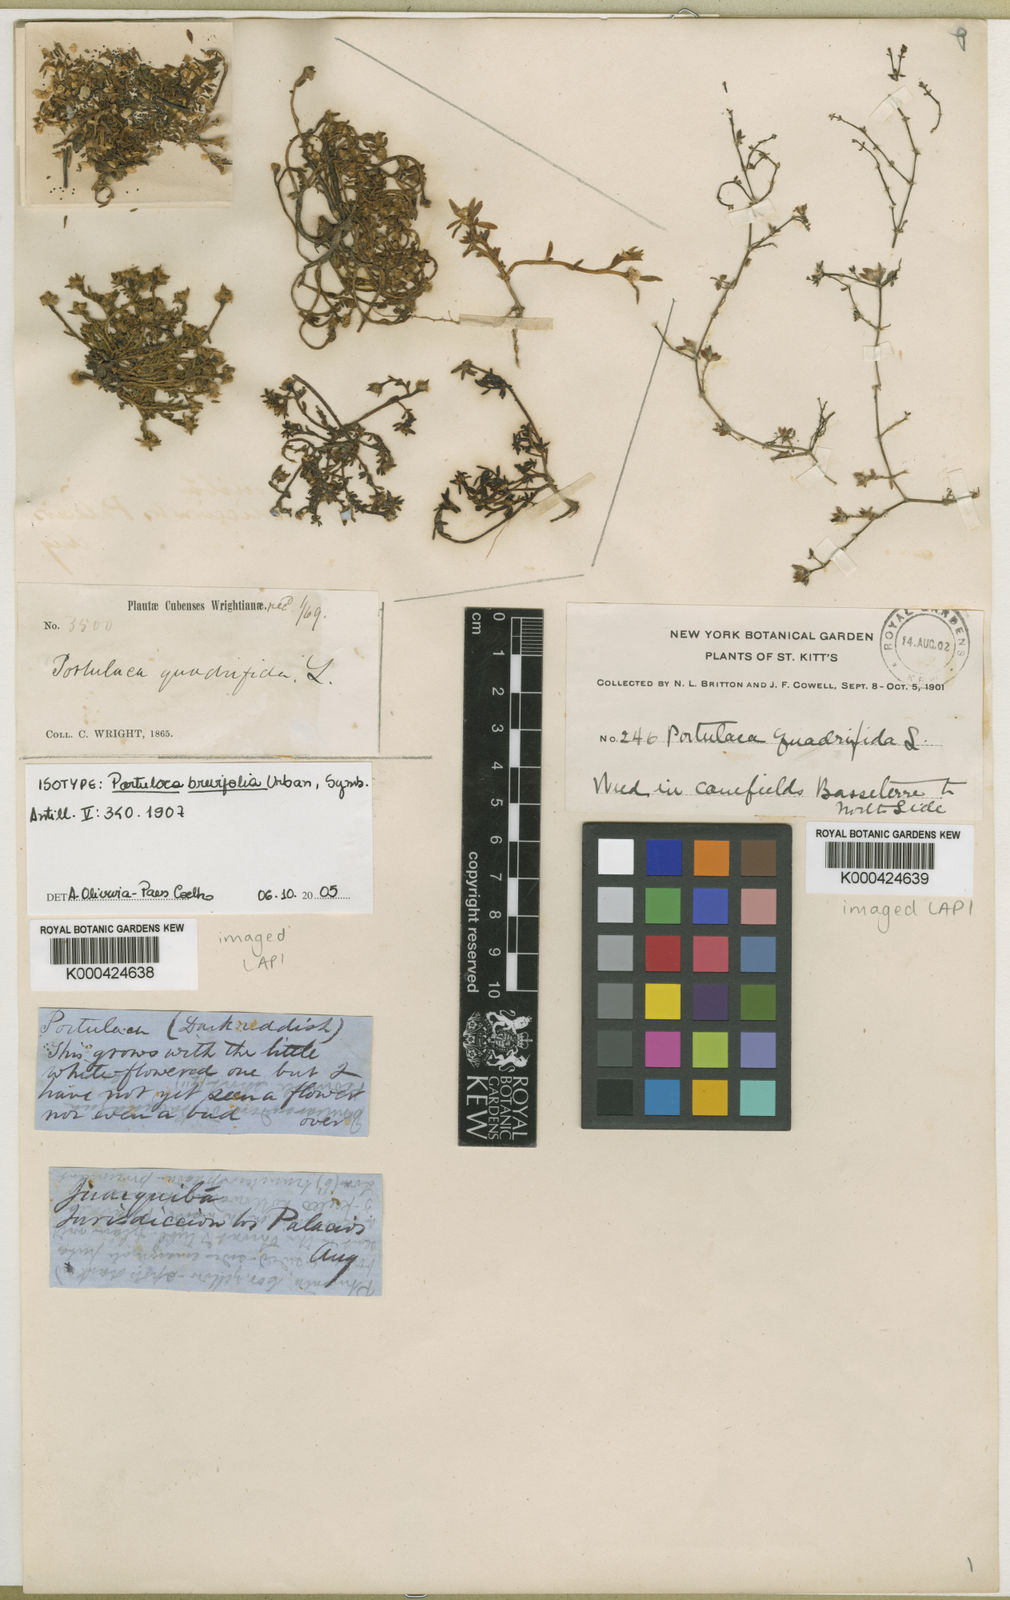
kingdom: Plantae
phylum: Tracheophyta
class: Magnoliopsida
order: Caryophyllales
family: Portulacaceae
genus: Portulaca
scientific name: Portulaca brevifolia
